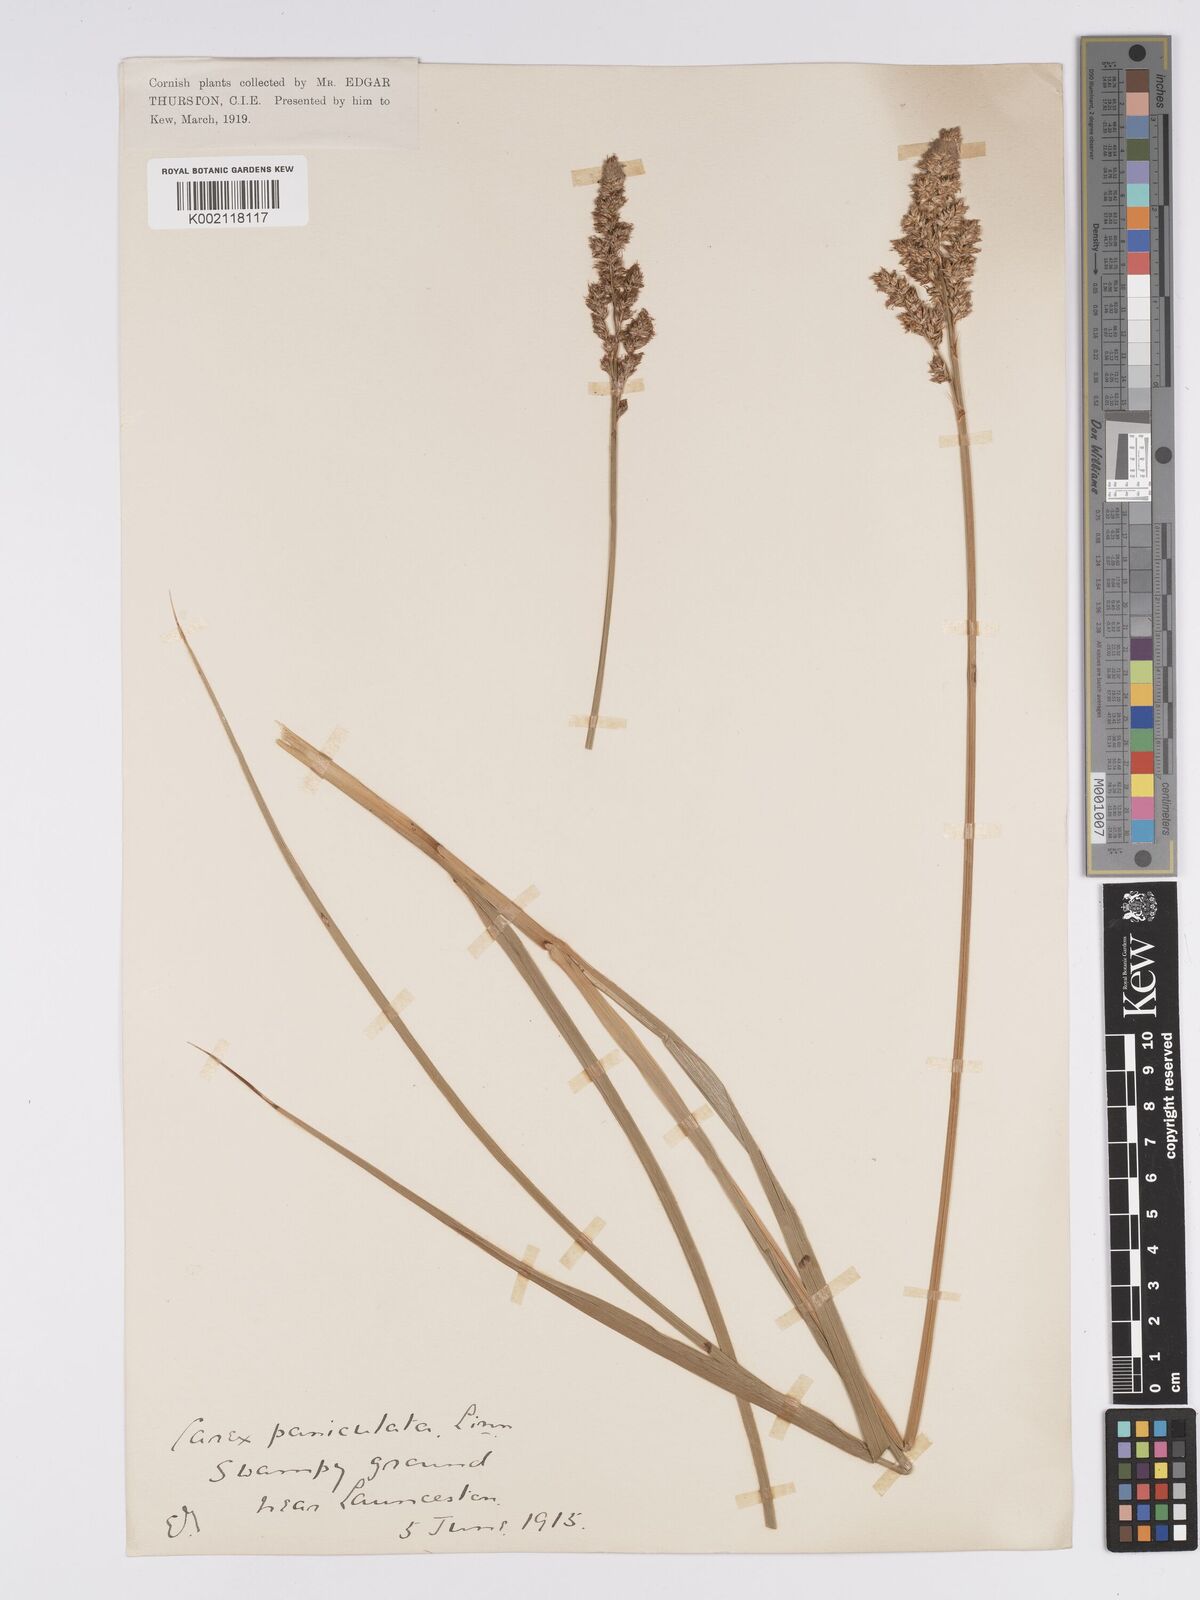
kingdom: Plantae
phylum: Tracheophyta
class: Liliopsida
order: Poales
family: Cyperaceae
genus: Carex
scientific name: Carex paniculata
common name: Greater tussock-sedge
